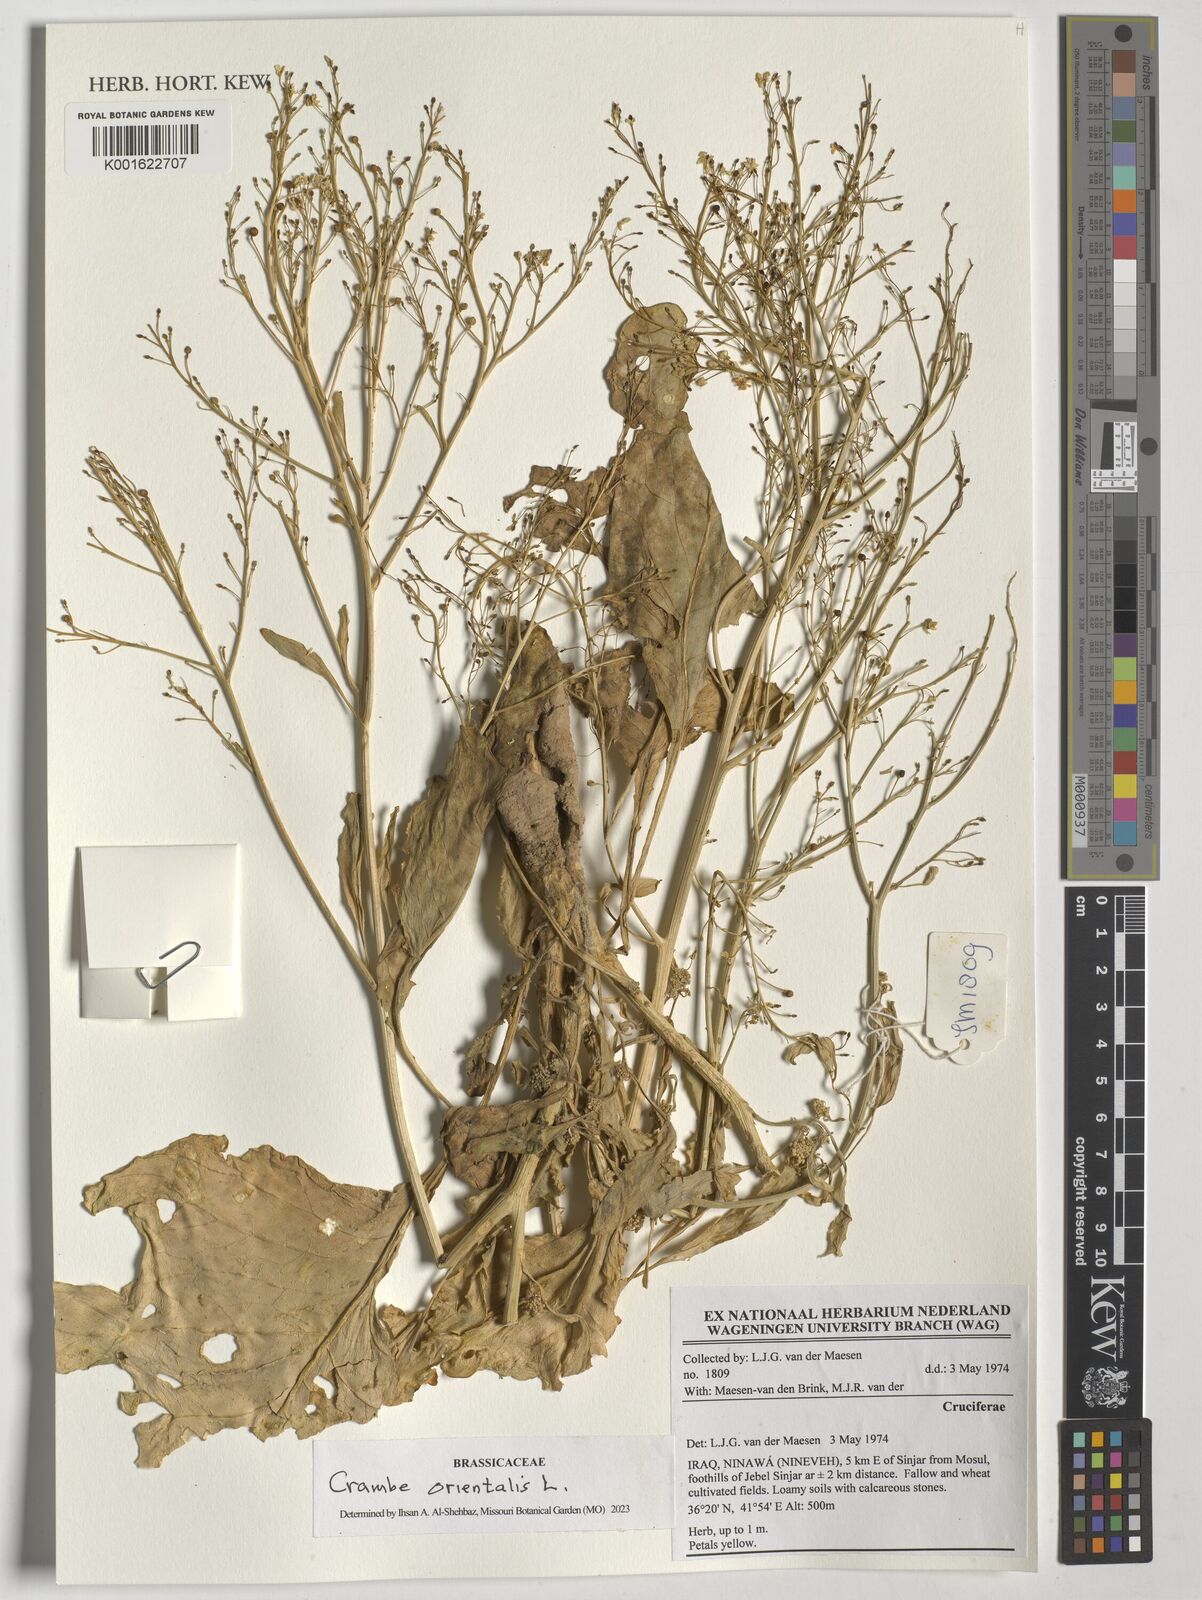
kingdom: Plantae
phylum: Tracheophyta
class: Magnoliopsida
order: Brassicales
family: Brassicaceae
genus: Crambe
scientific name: Crambe orientalis
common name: Oriental sea-kale
